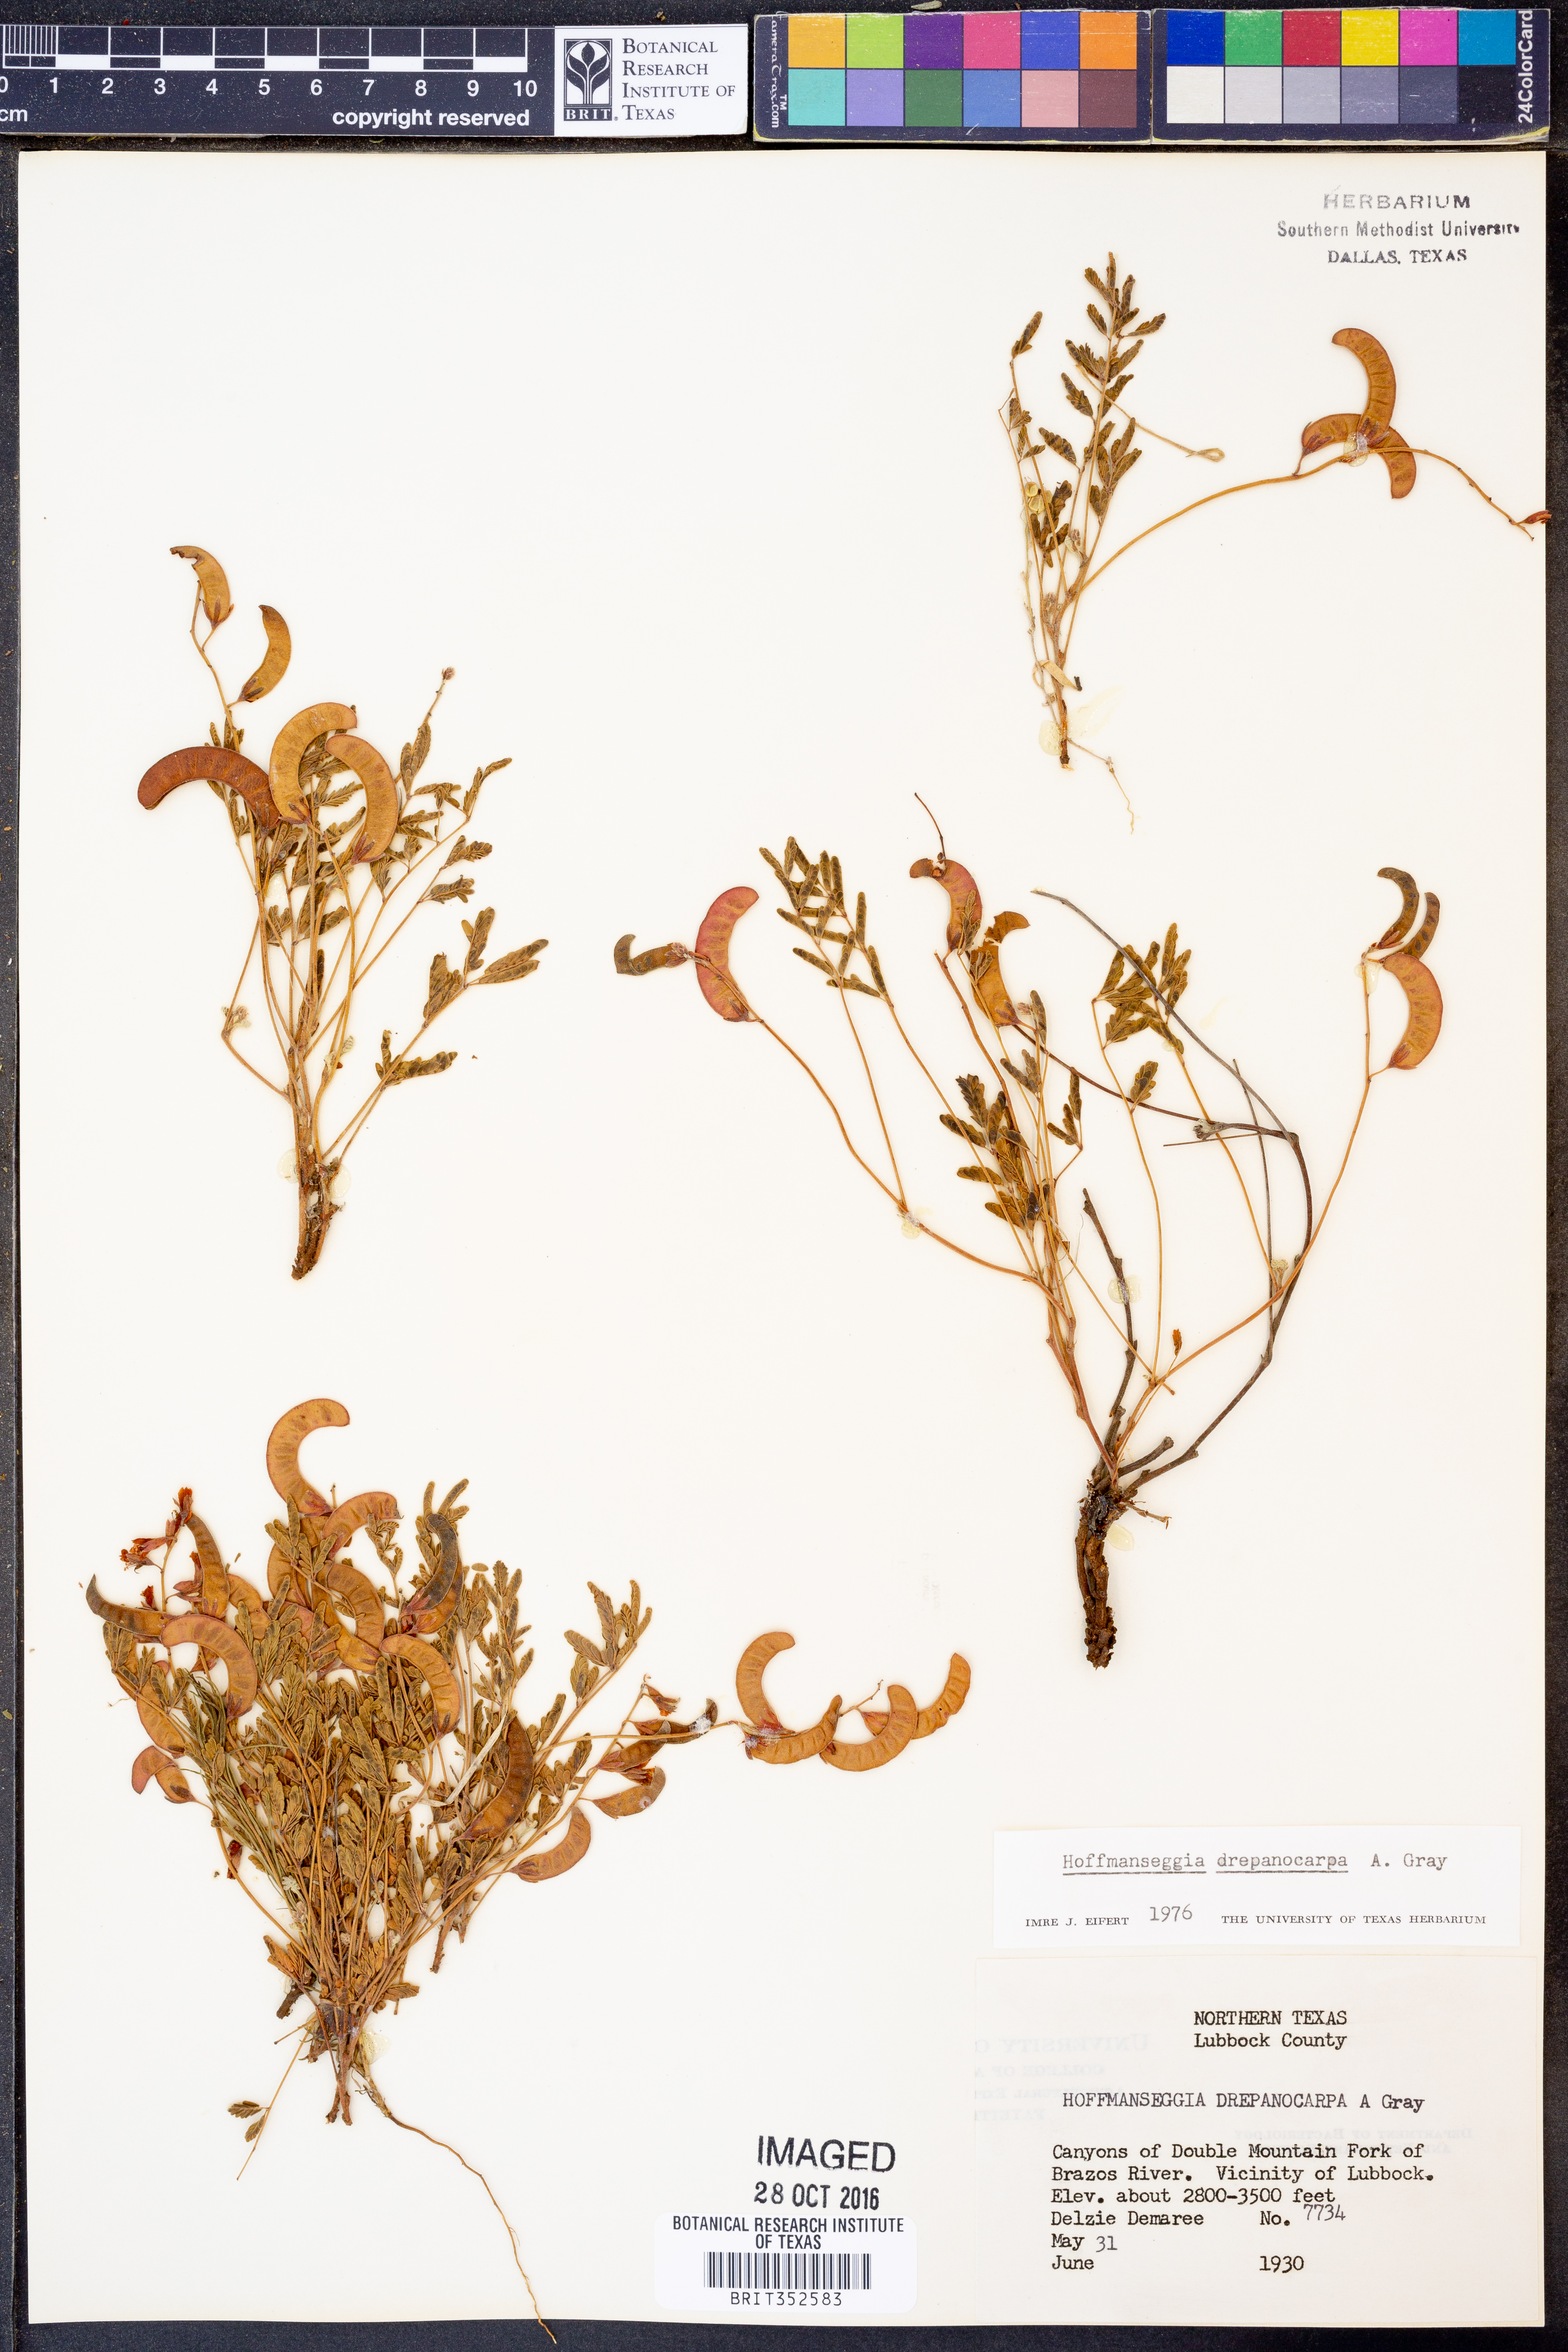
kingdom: Plantae
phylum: Tracheophyta
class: Magnoliopsida
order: Fabales
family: Fabaceae
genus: Hoffmannseggia
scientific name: Hoffmannseggia drepanocarpa
